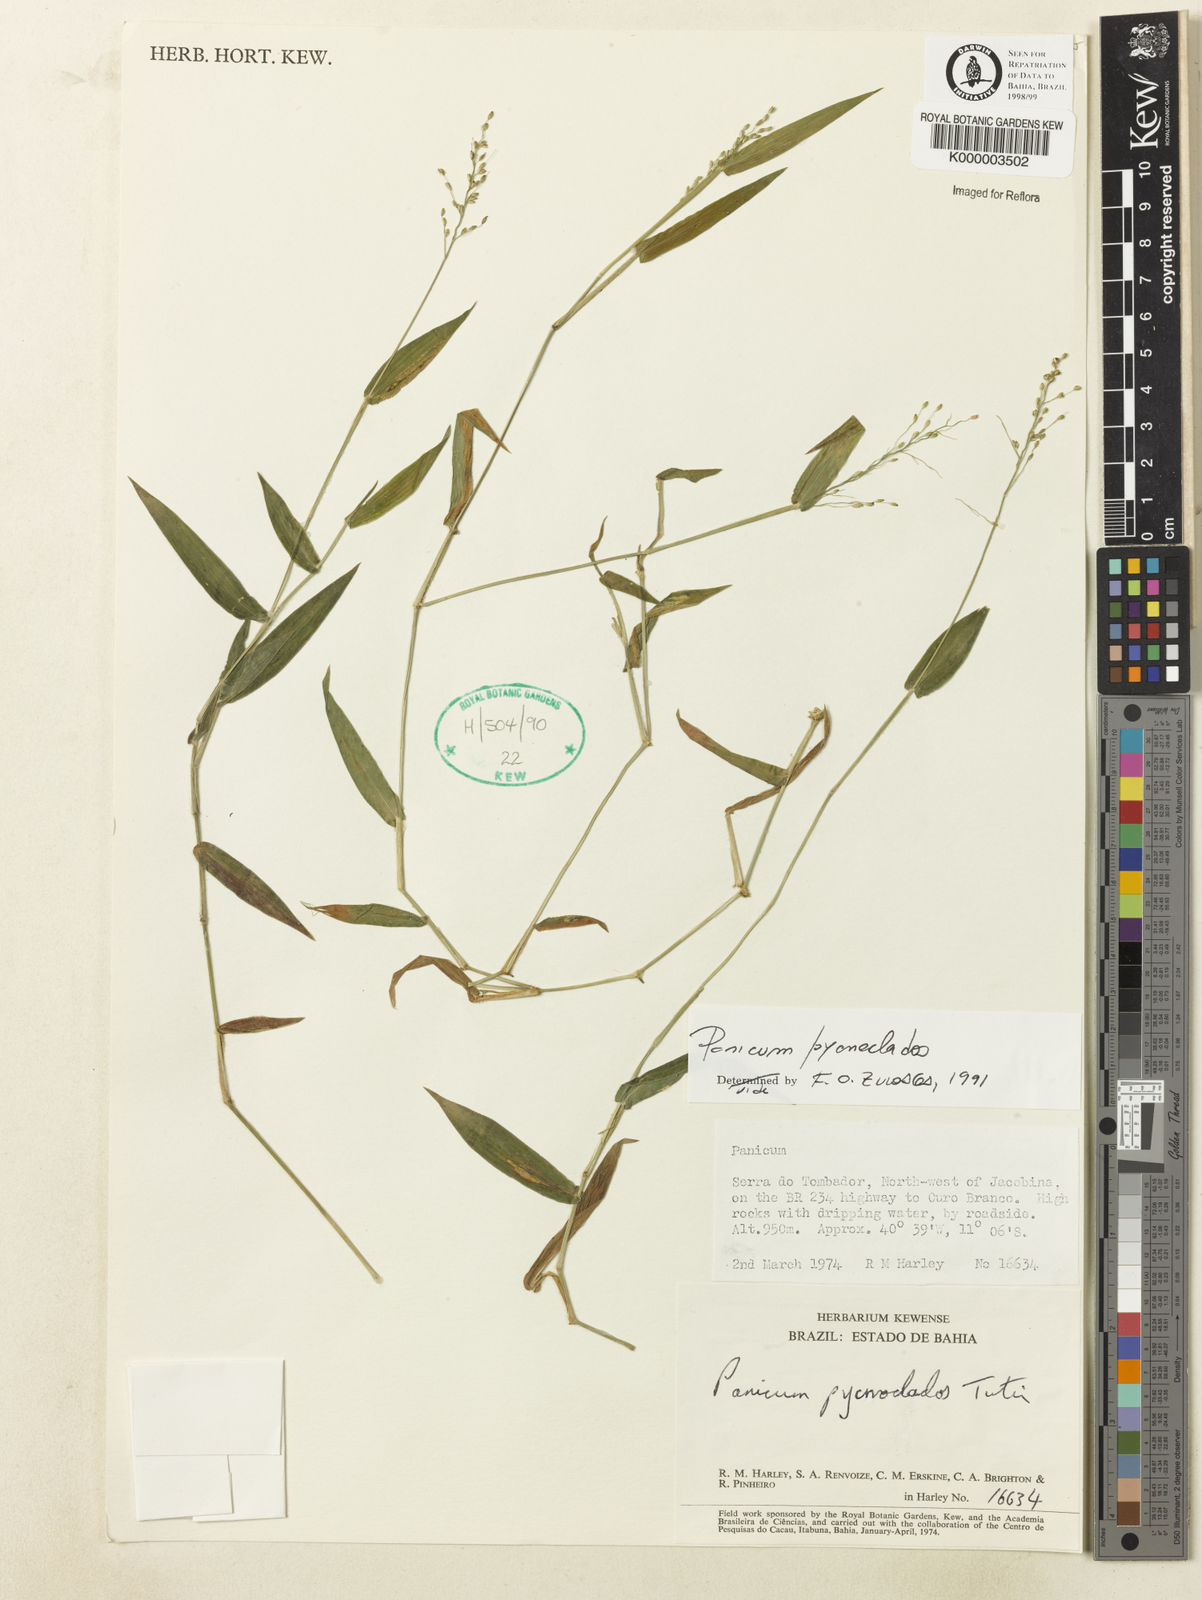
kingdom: Plantae
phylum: Tracheophyta
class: Liliopsida
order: Poales
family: Poaceae
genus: Dichanthelium
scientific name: Dichanthelium pycnoclados
